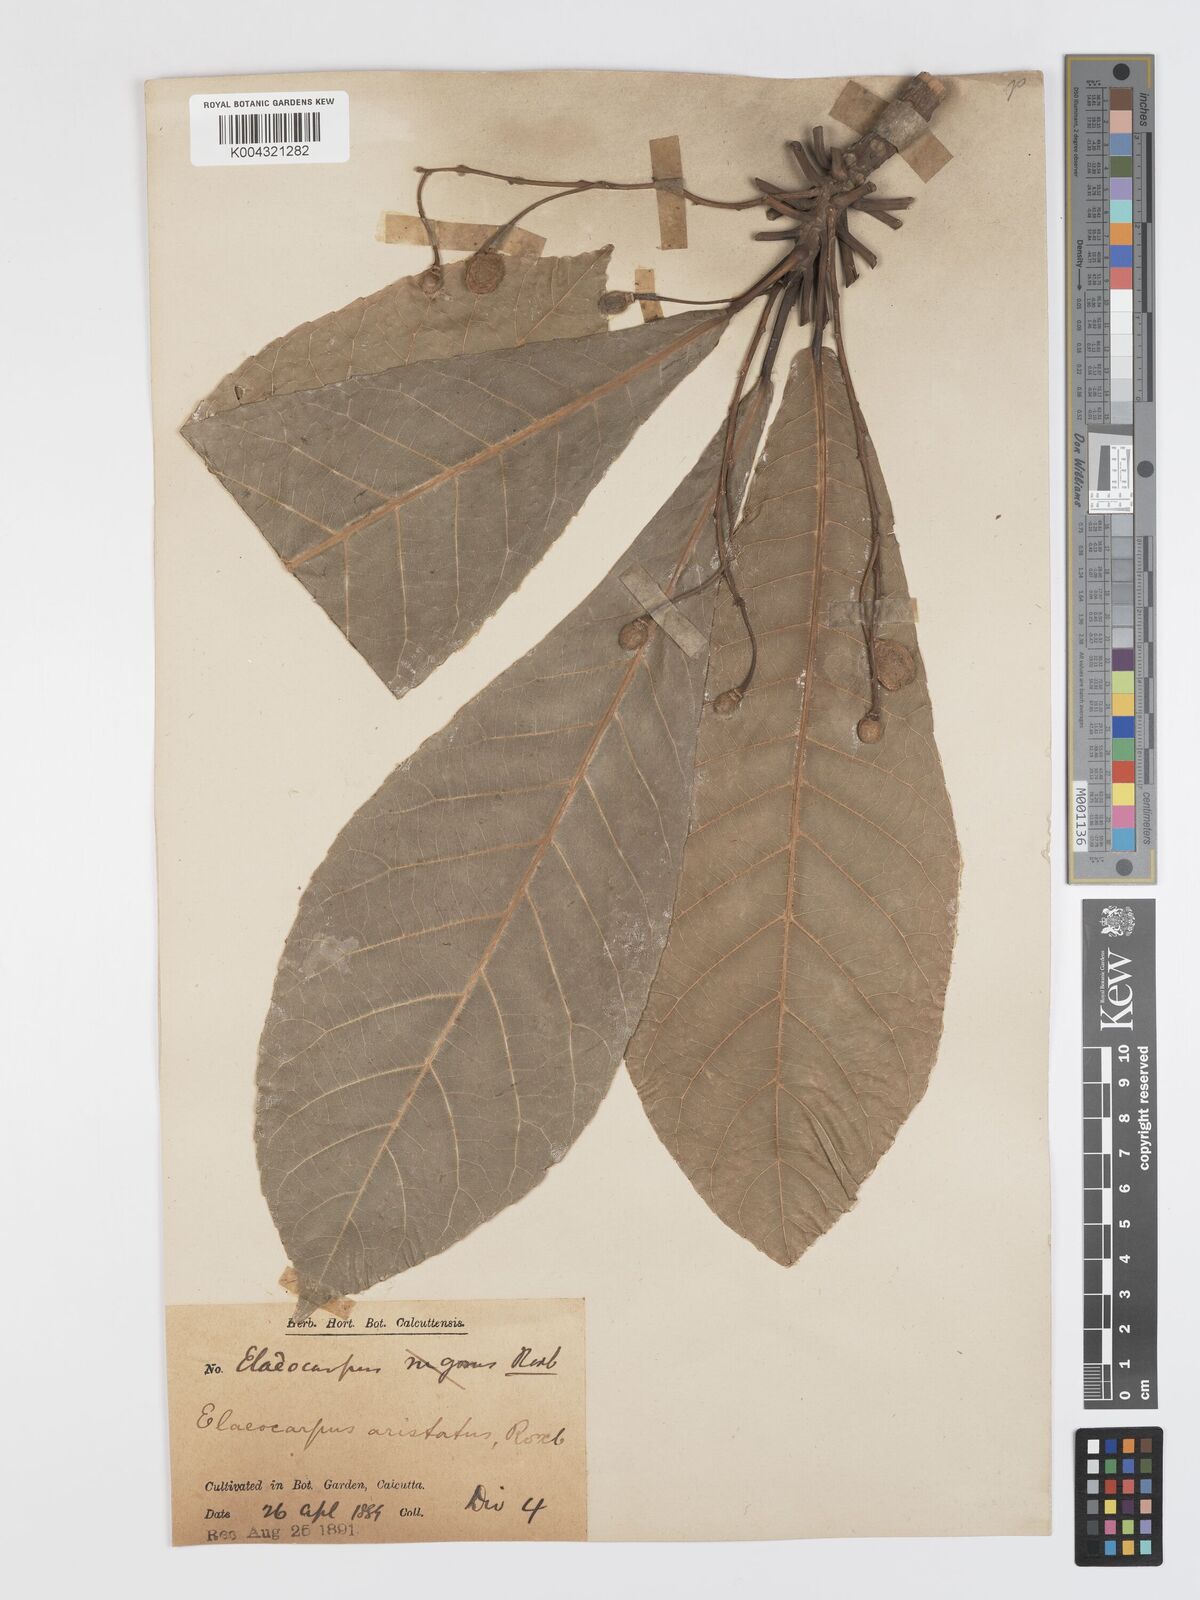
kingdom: Plantae
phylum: Tracheophyta
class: Magnoliopsida
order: Oxalidales
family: Elaeocarpaceae
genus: Elaeocarpus
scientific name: Elaeocarpus aristatus
